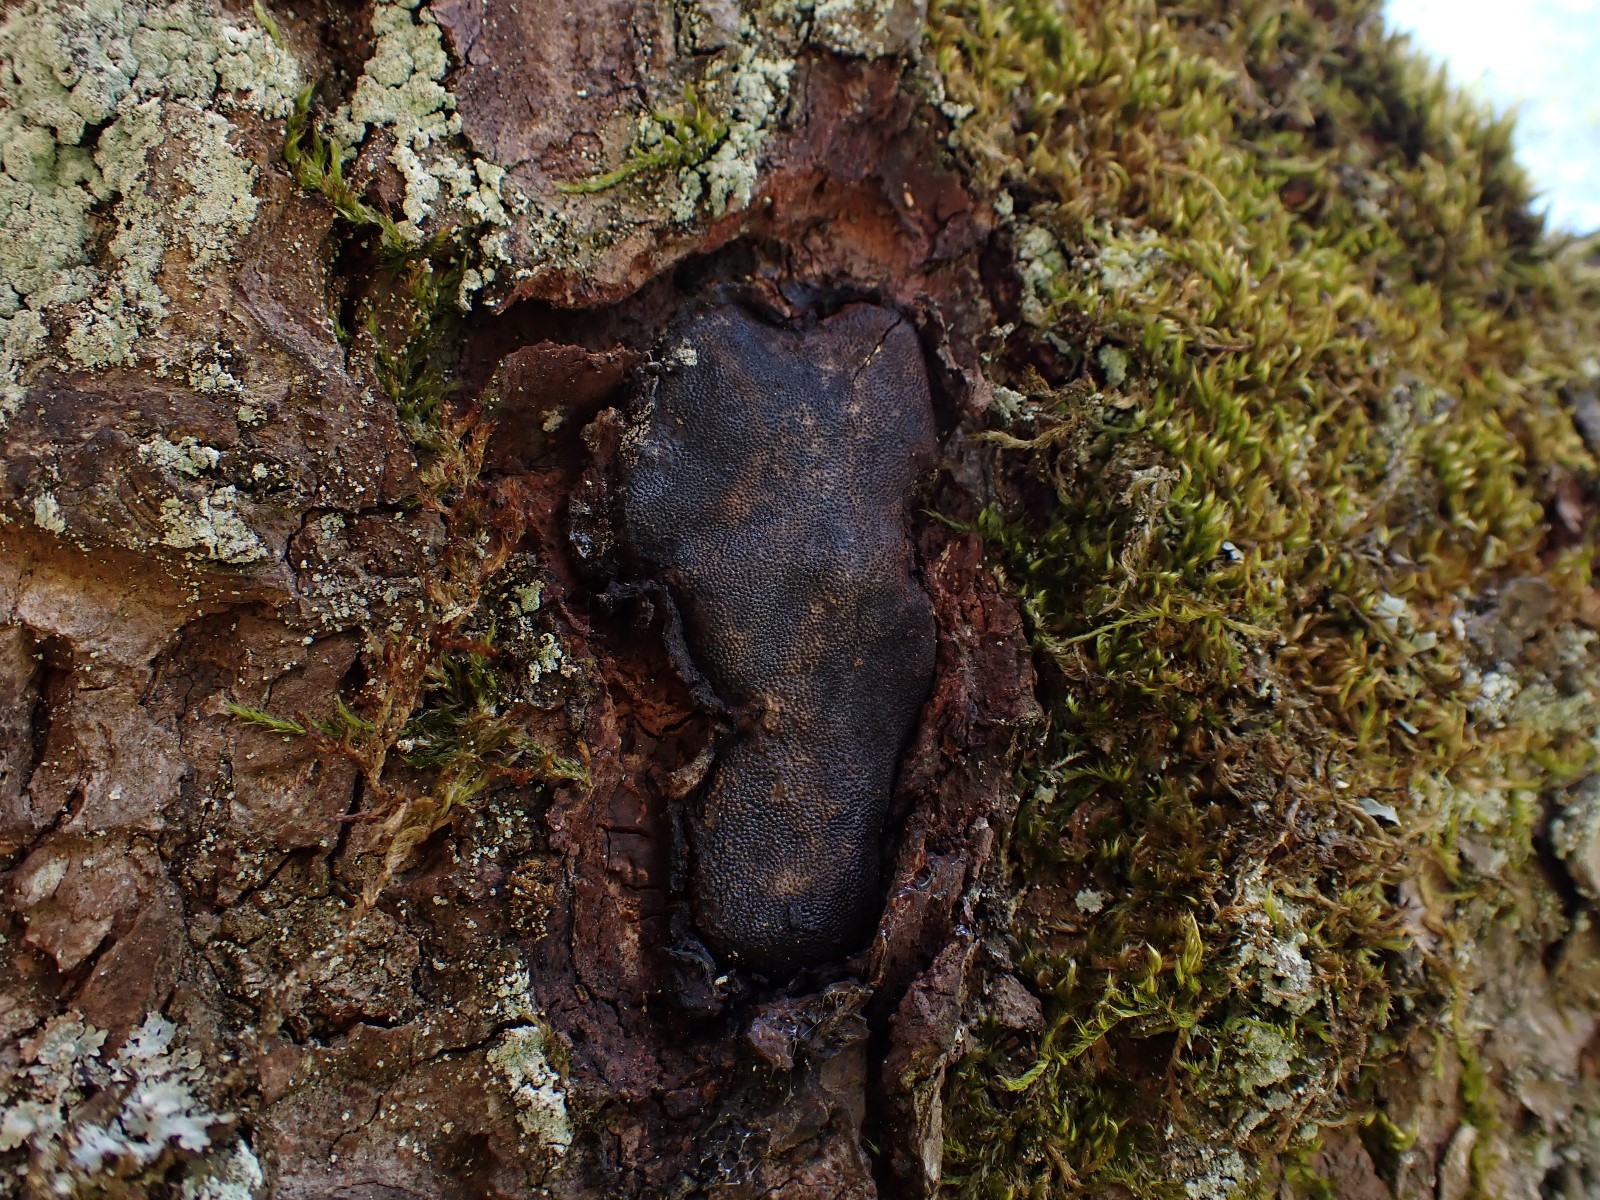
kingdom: Fungi
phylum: Ascomycota
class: Sordariomycetes
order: Boliniales
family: Boliniaceae
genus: Camarops
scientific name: Camarops polysperma
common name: elle-kulsnegl
